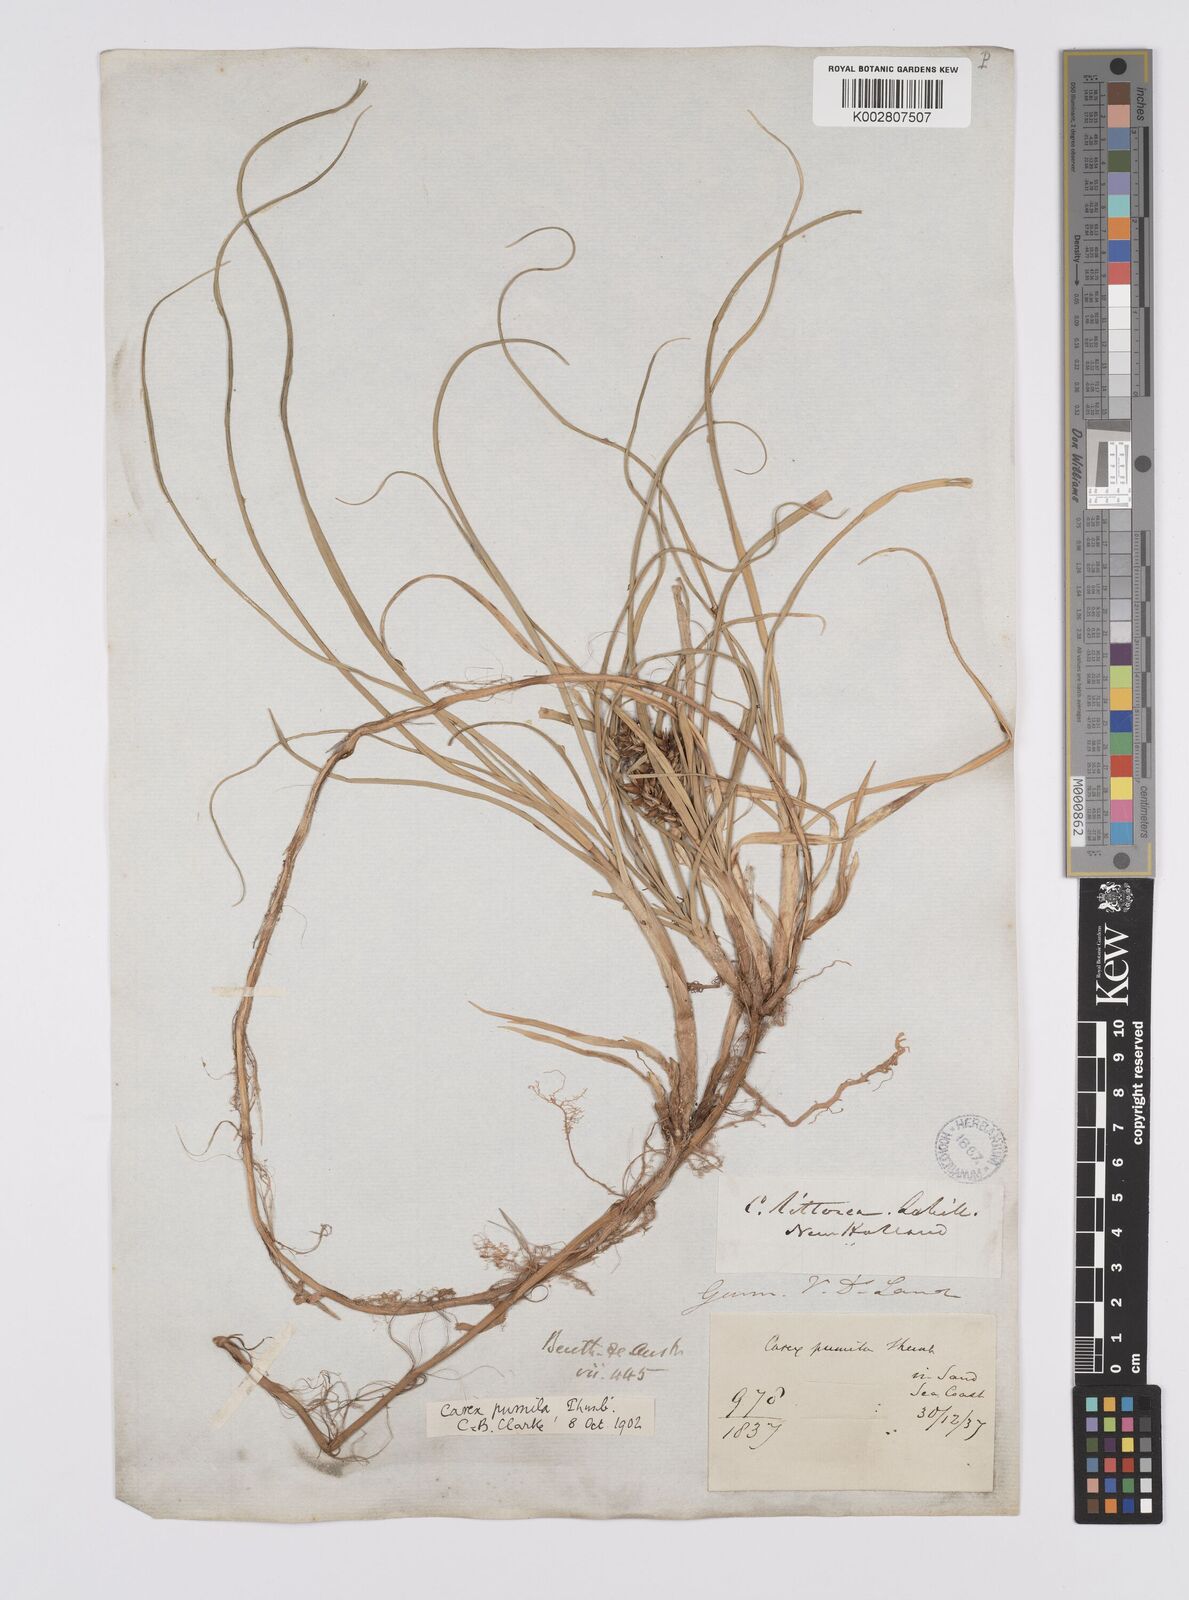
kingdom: Plantae
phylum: Tracheophyta
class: Liliopsida
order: Poales
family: Cyperaceae
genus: Carex
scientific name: Carex pumila
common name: Dwarf sedge
